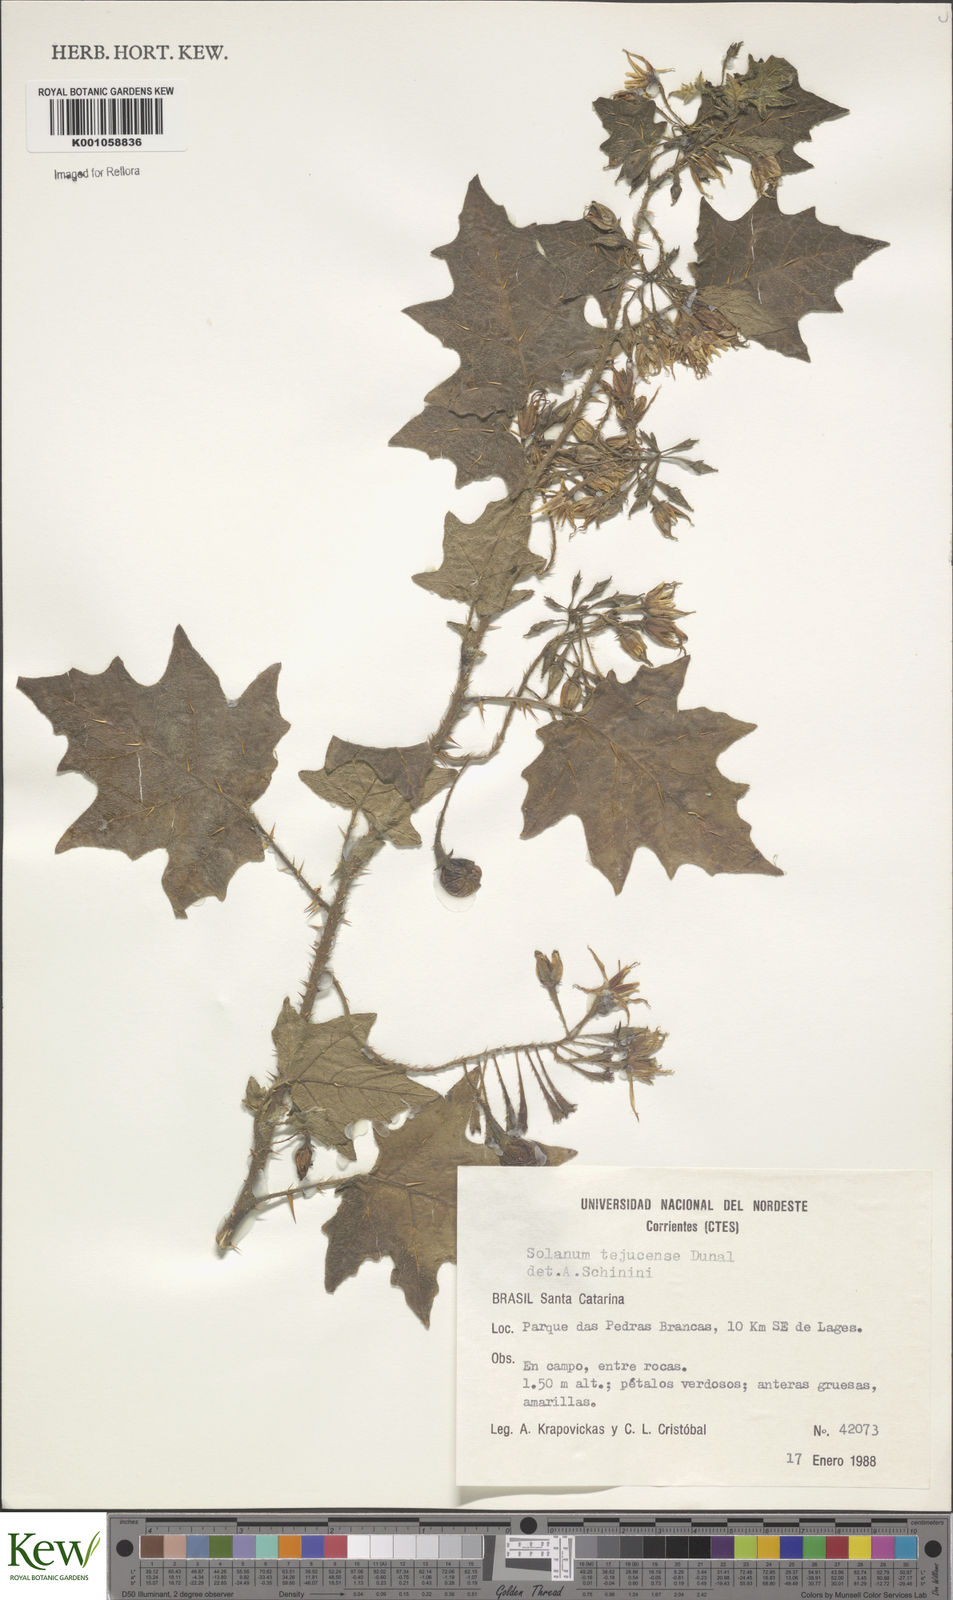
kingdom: Plantae
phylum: Tracheophyta
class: Magnoliopsida
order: Solanales
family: Solanaceae
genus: Solanum
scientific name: Solanum vaillantii
